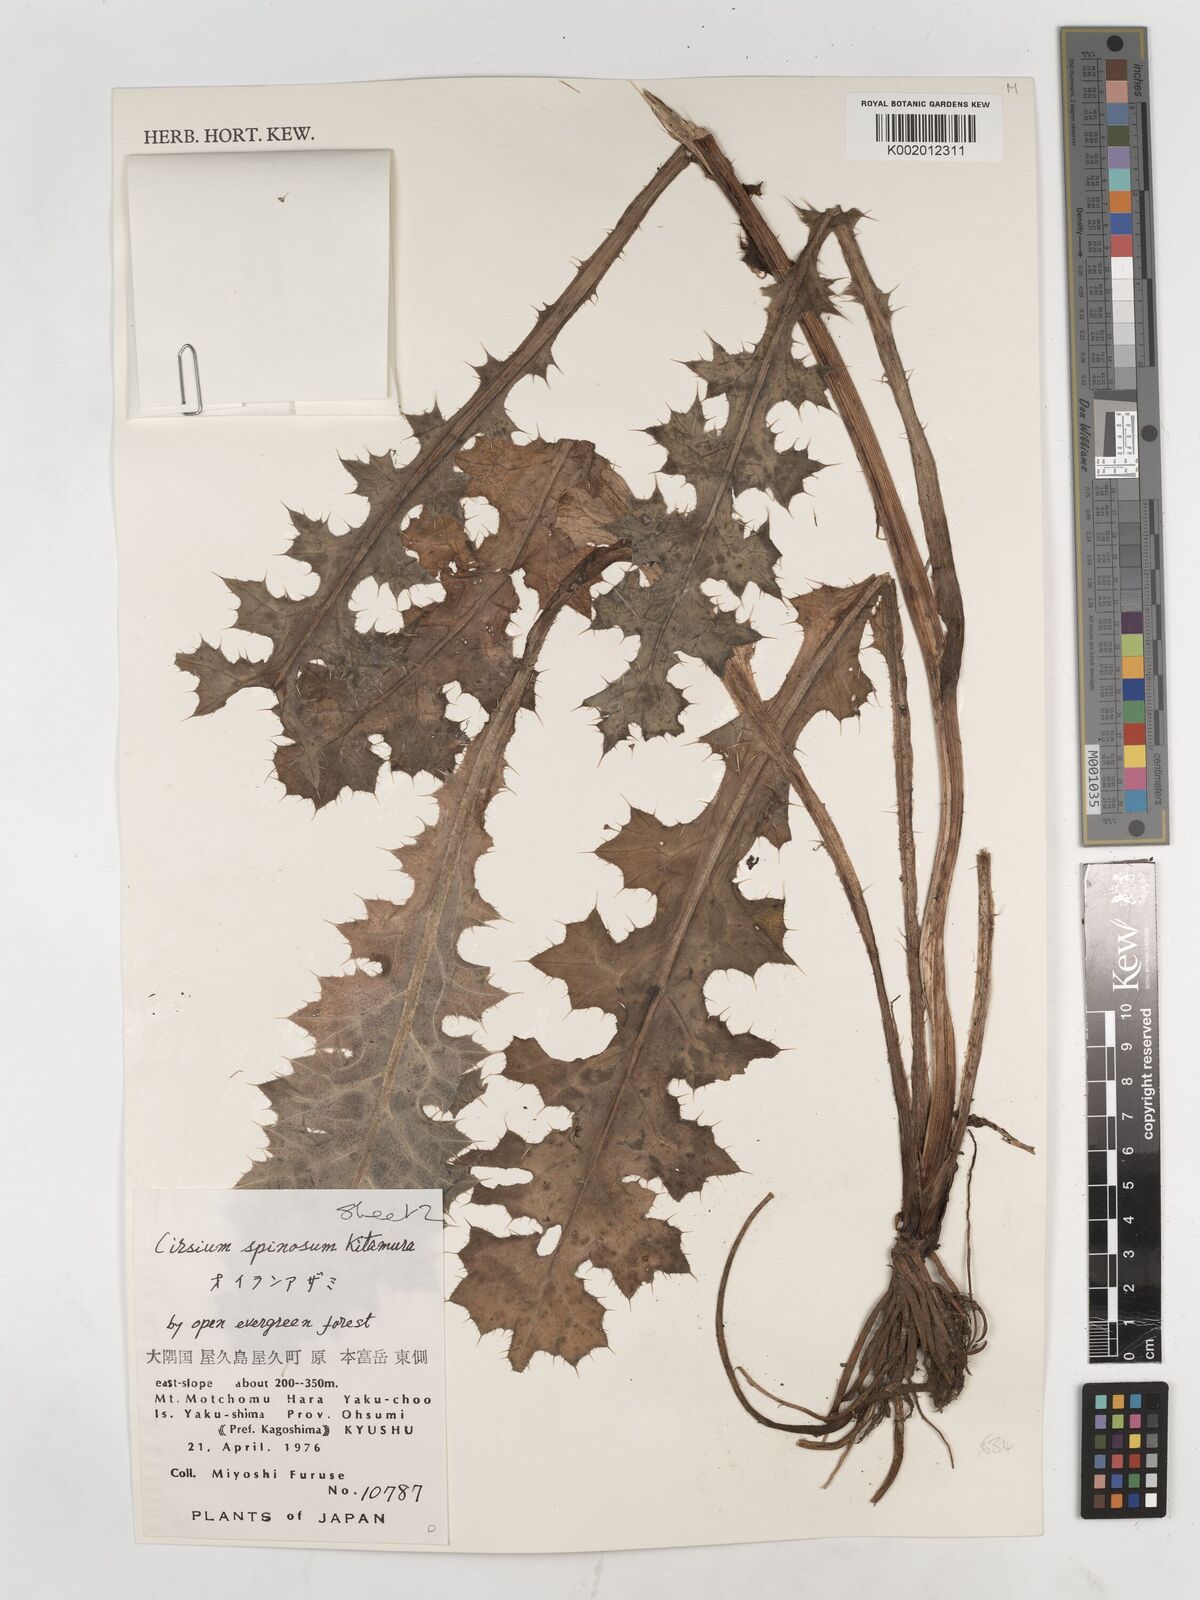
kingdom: Plantae
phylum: Tracheophyta
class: Magnoliopsida
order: Asterales
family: Asteraceae
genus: Cirsium
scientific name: Cirsium spinosum
